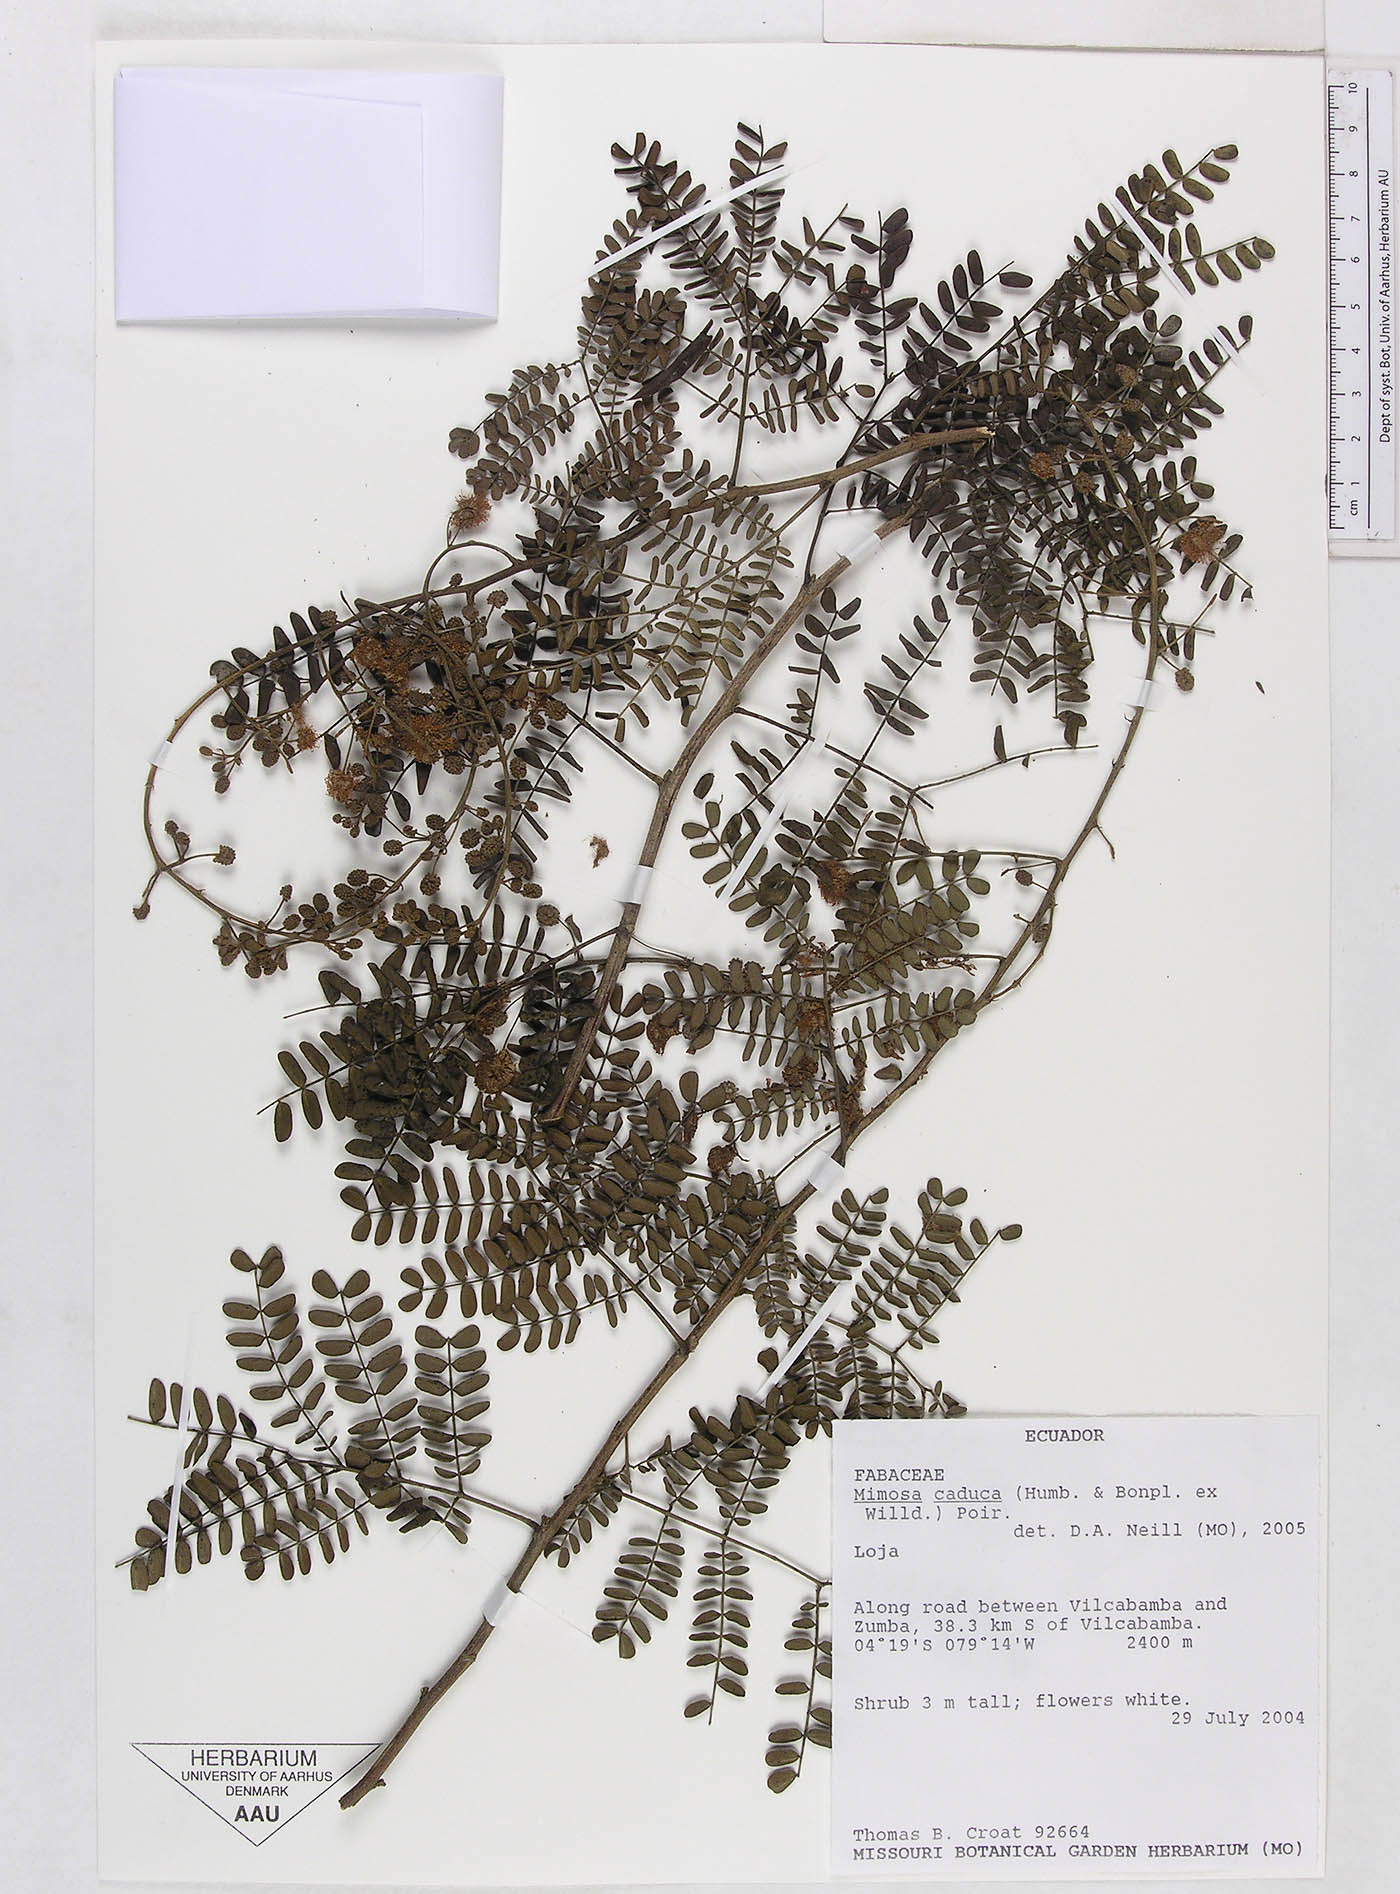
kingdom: Plantae
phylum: Tracheophyta
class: Magnoliopsida
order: Fabales
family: Fabaceae
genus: Mimosa
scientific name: Mimosa caduca
